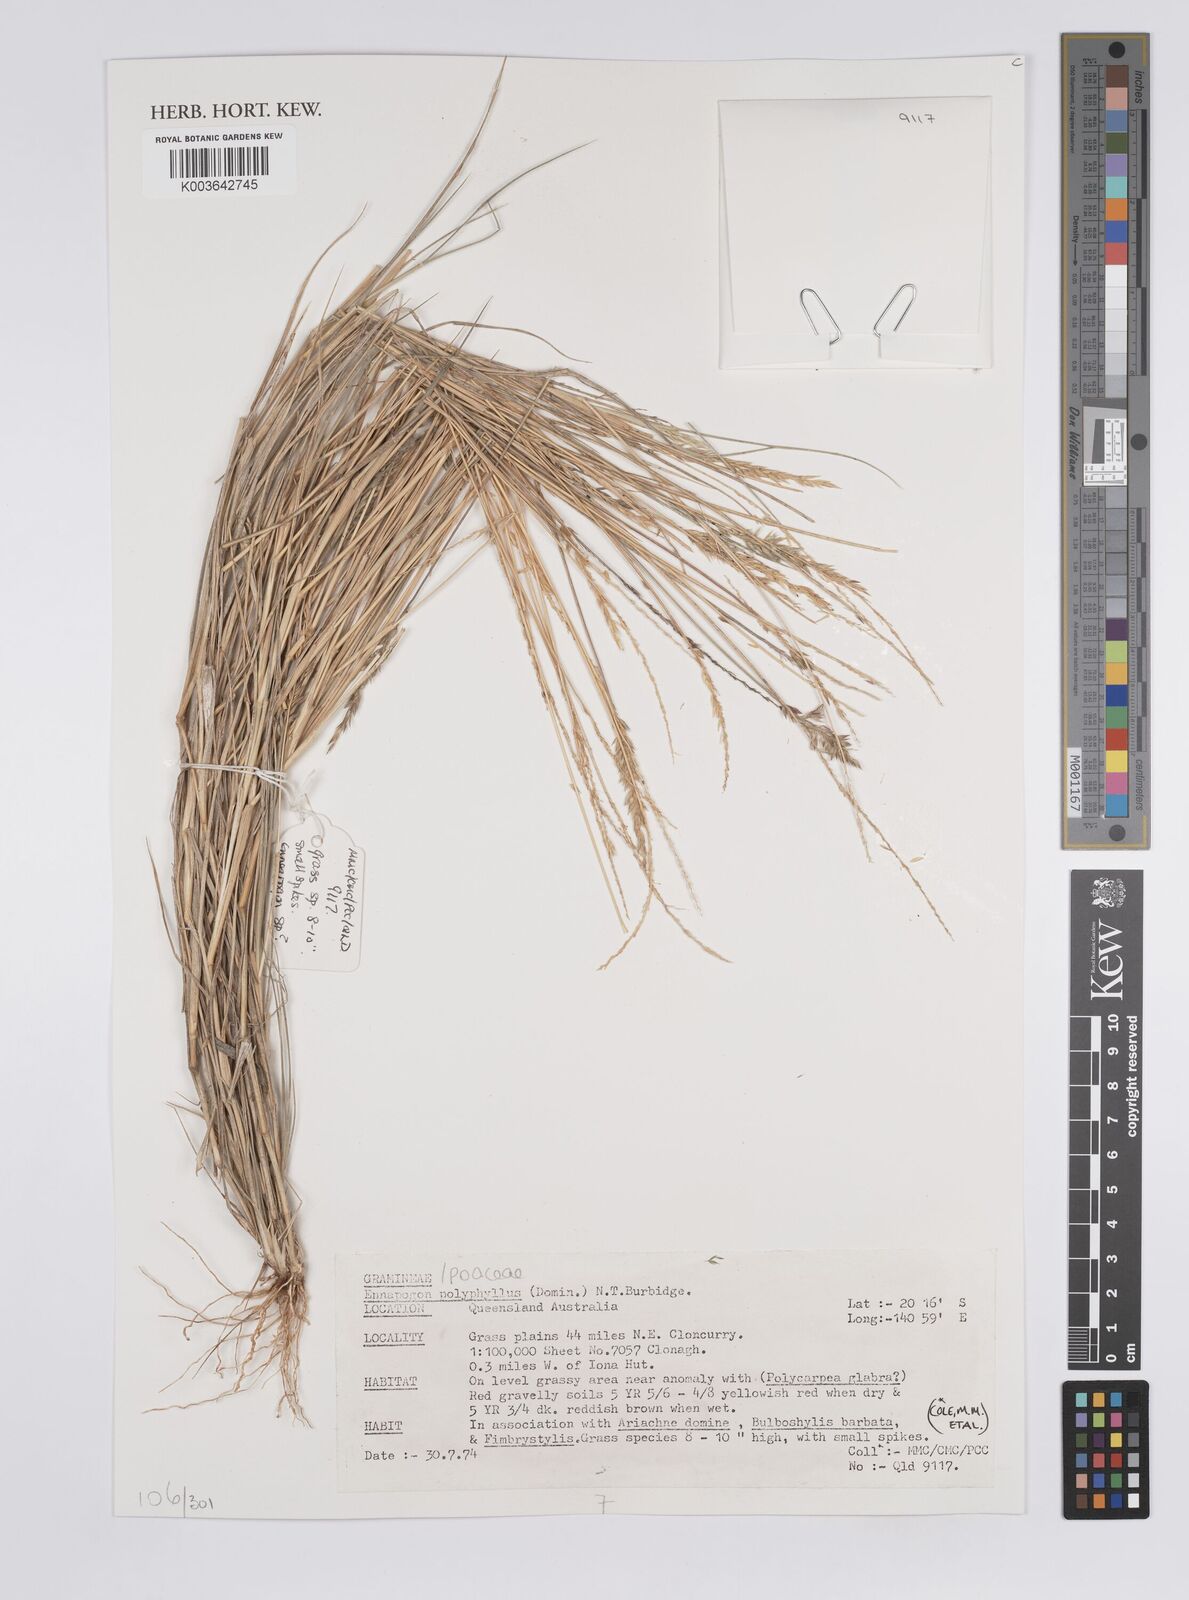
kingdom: Plantae
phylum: Tracheophyta
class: Liliopsida
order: Poales
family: Poaceae
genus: Enneapogon
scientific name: Enneapogon polyphyllus
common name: Leafy nineawn
